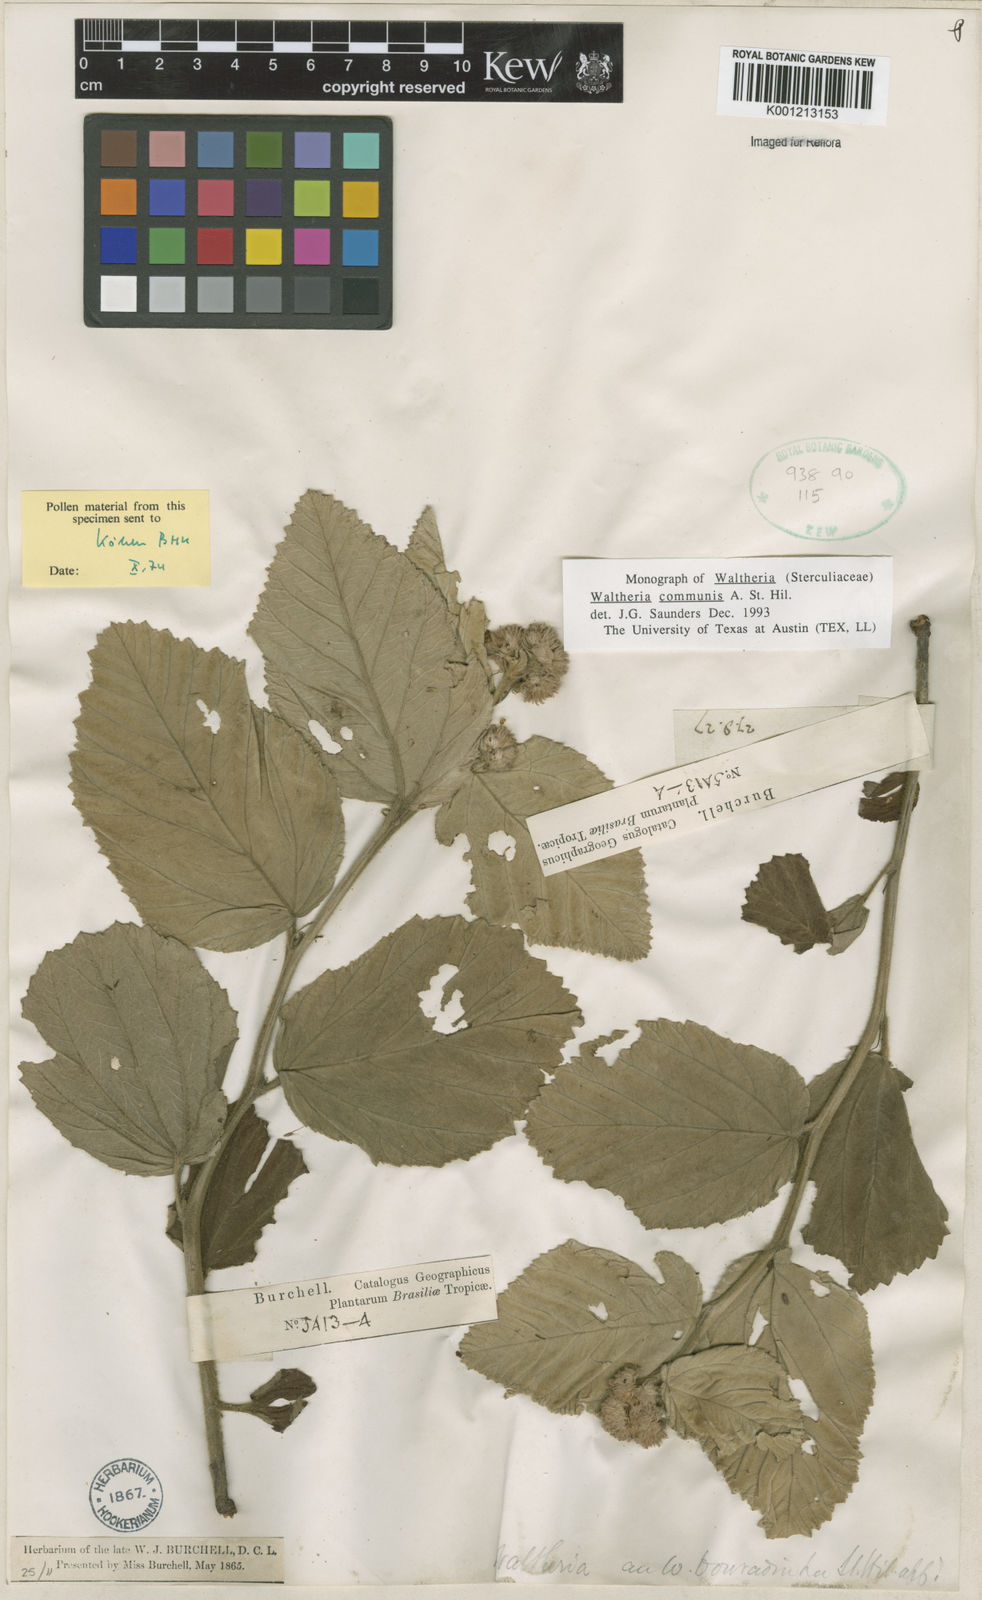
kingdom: Plantae
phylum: Tracheophyta
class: Magnoliopsida
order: Malvales
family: Malvaceae
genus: Waltheria
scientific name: Waltheria communis
